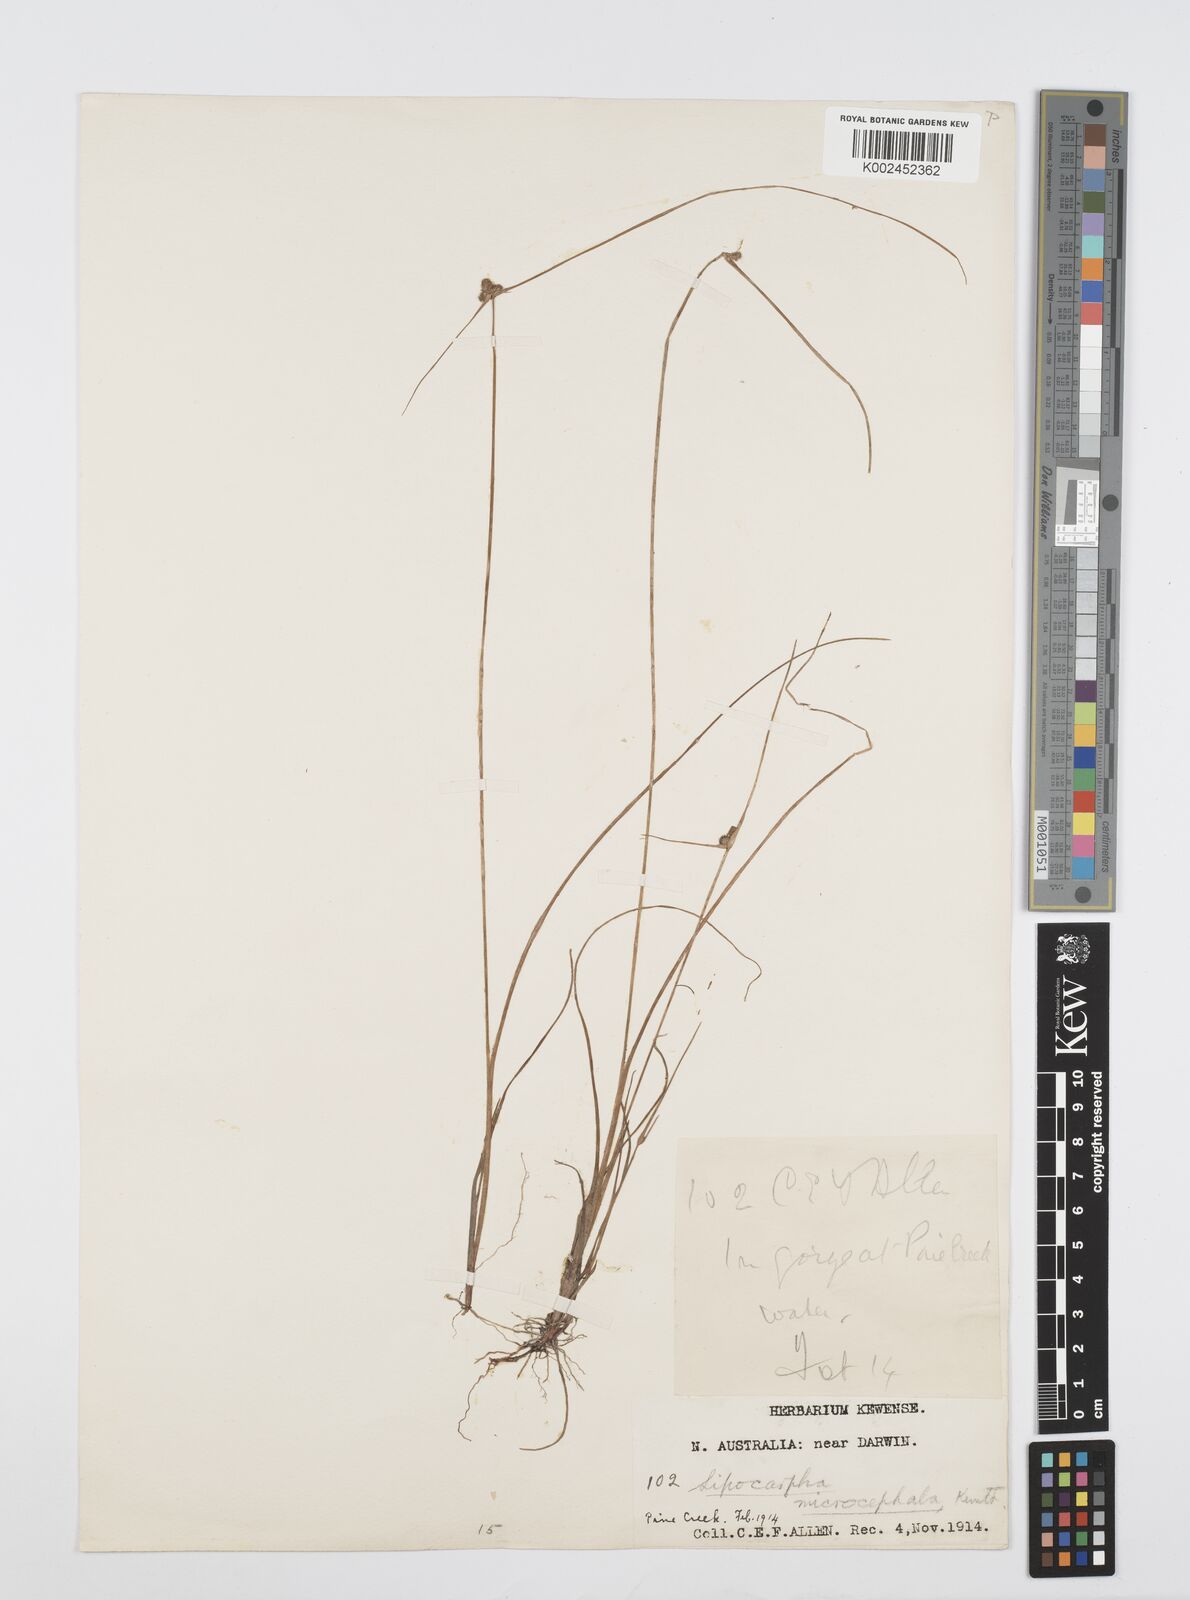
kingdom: Plantae
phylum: Tracheophyta
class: Liliopsida
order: Poales
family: Cyperaceae
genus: Cyperus
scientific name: Cyperus microcephalus
